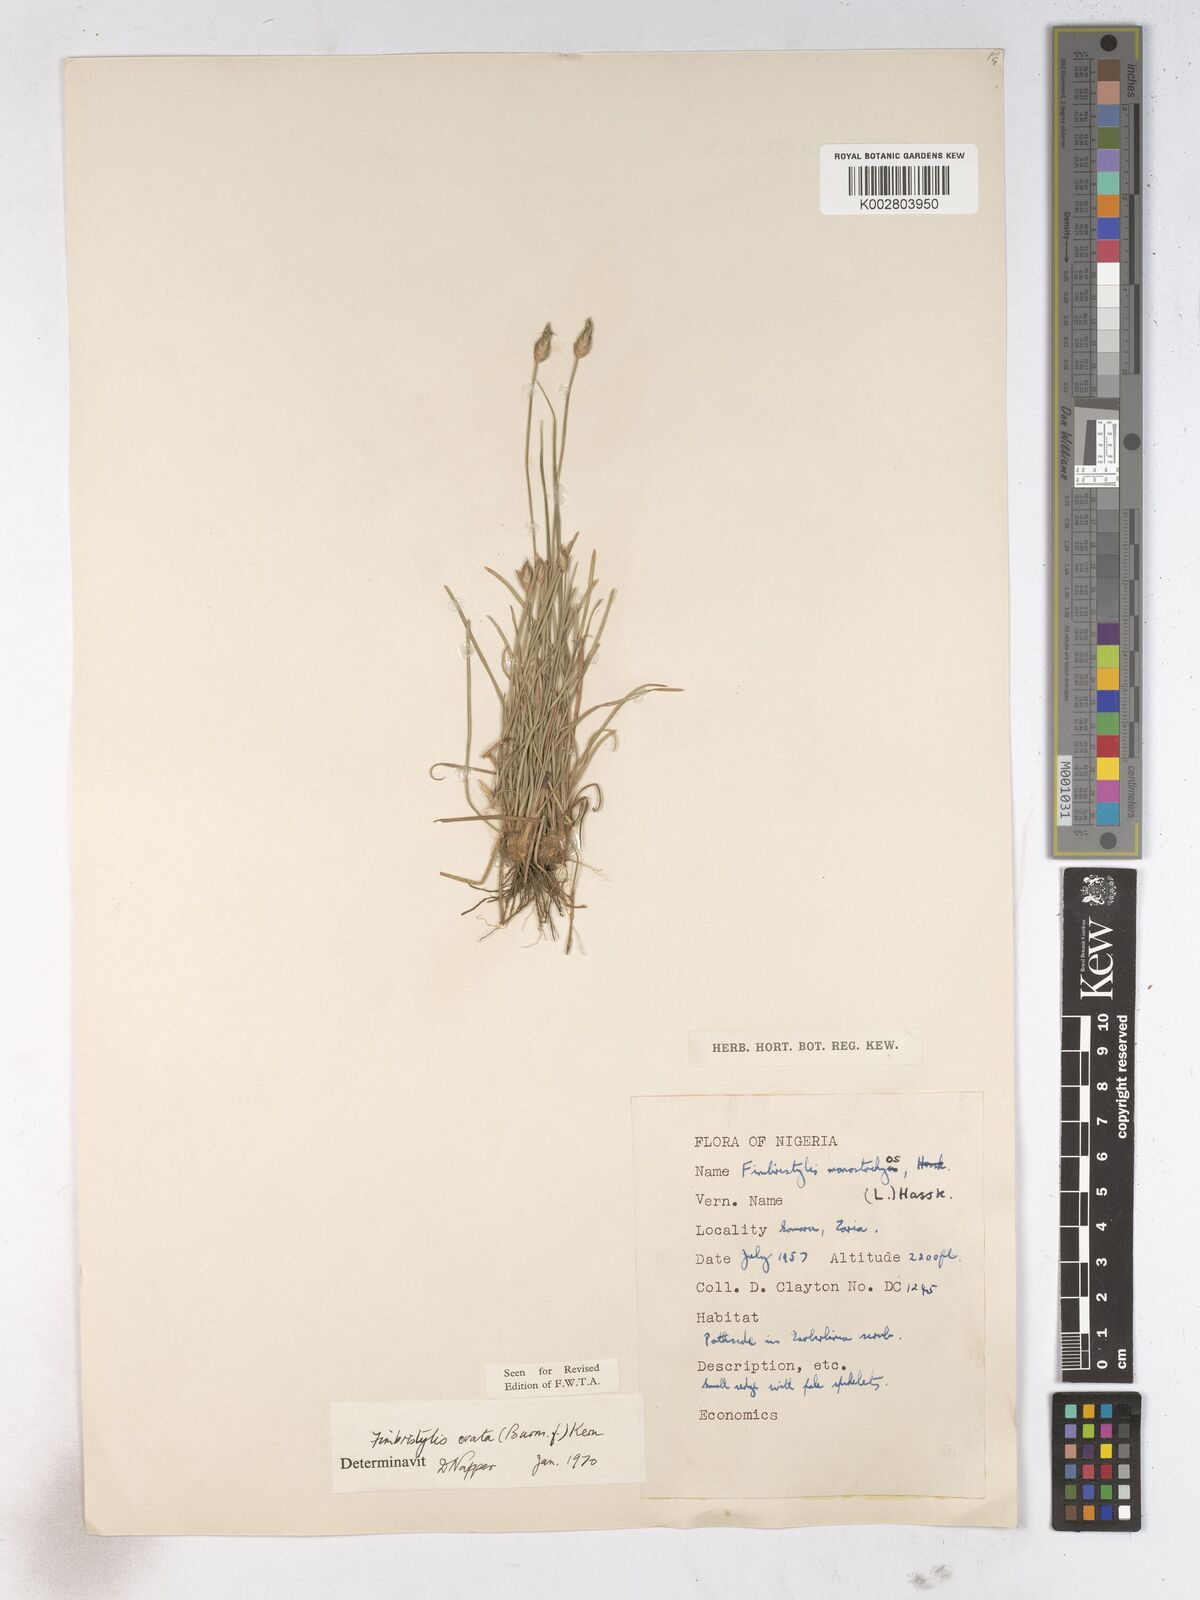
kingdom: Plantae
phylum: Tracheophyta
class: Liliopsida
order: Poales
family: Cyperaceae
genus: Abildgaardia
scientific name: Abildgaardia ovata
